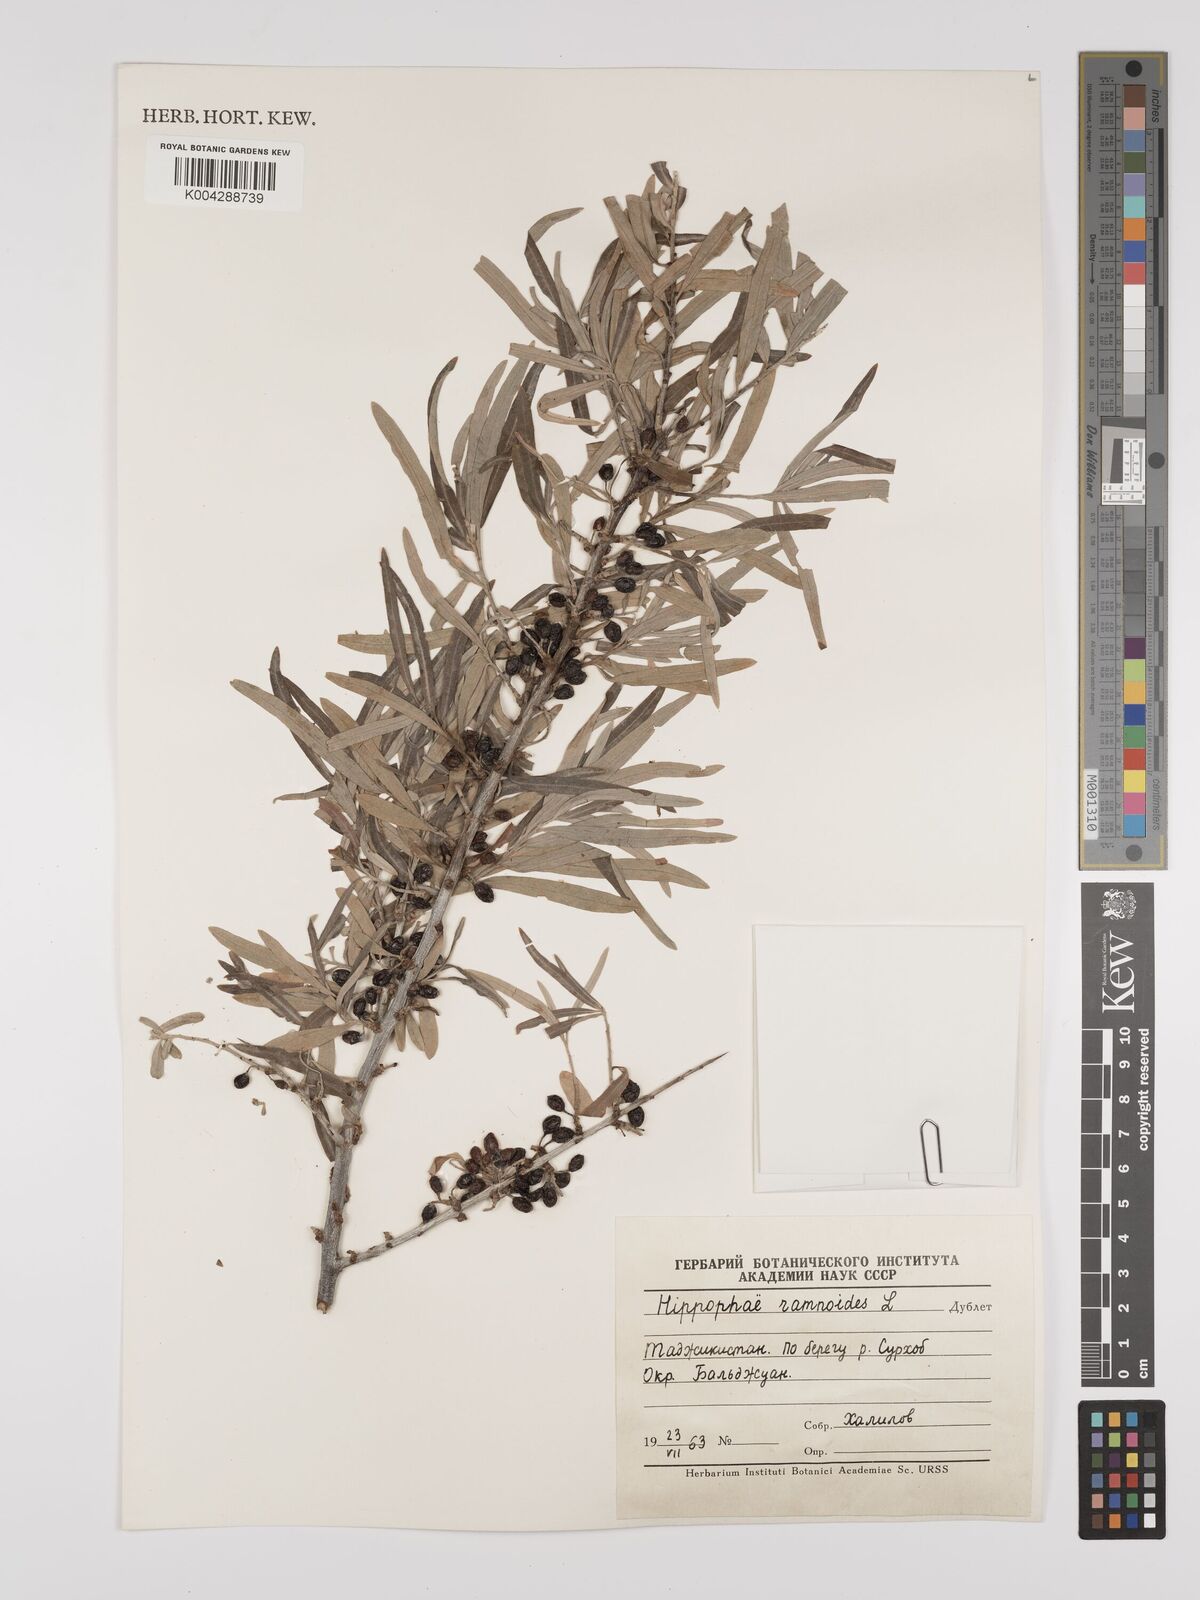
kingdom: Plantae
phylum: Tracheophyta
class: Magnoliopsida
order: Rosales
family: Elaeagnaceae
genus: Hippophae
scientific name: Hippophae rhamnoides
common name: Sea-buckthorn
